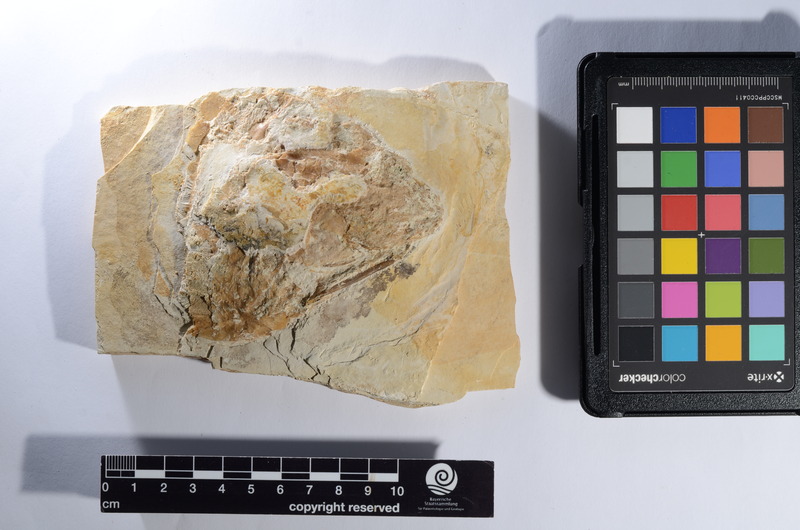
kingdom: Animalia
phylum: Chordata
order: Amiiformes
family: Caturidae
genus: Caturus
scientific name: Caturus
